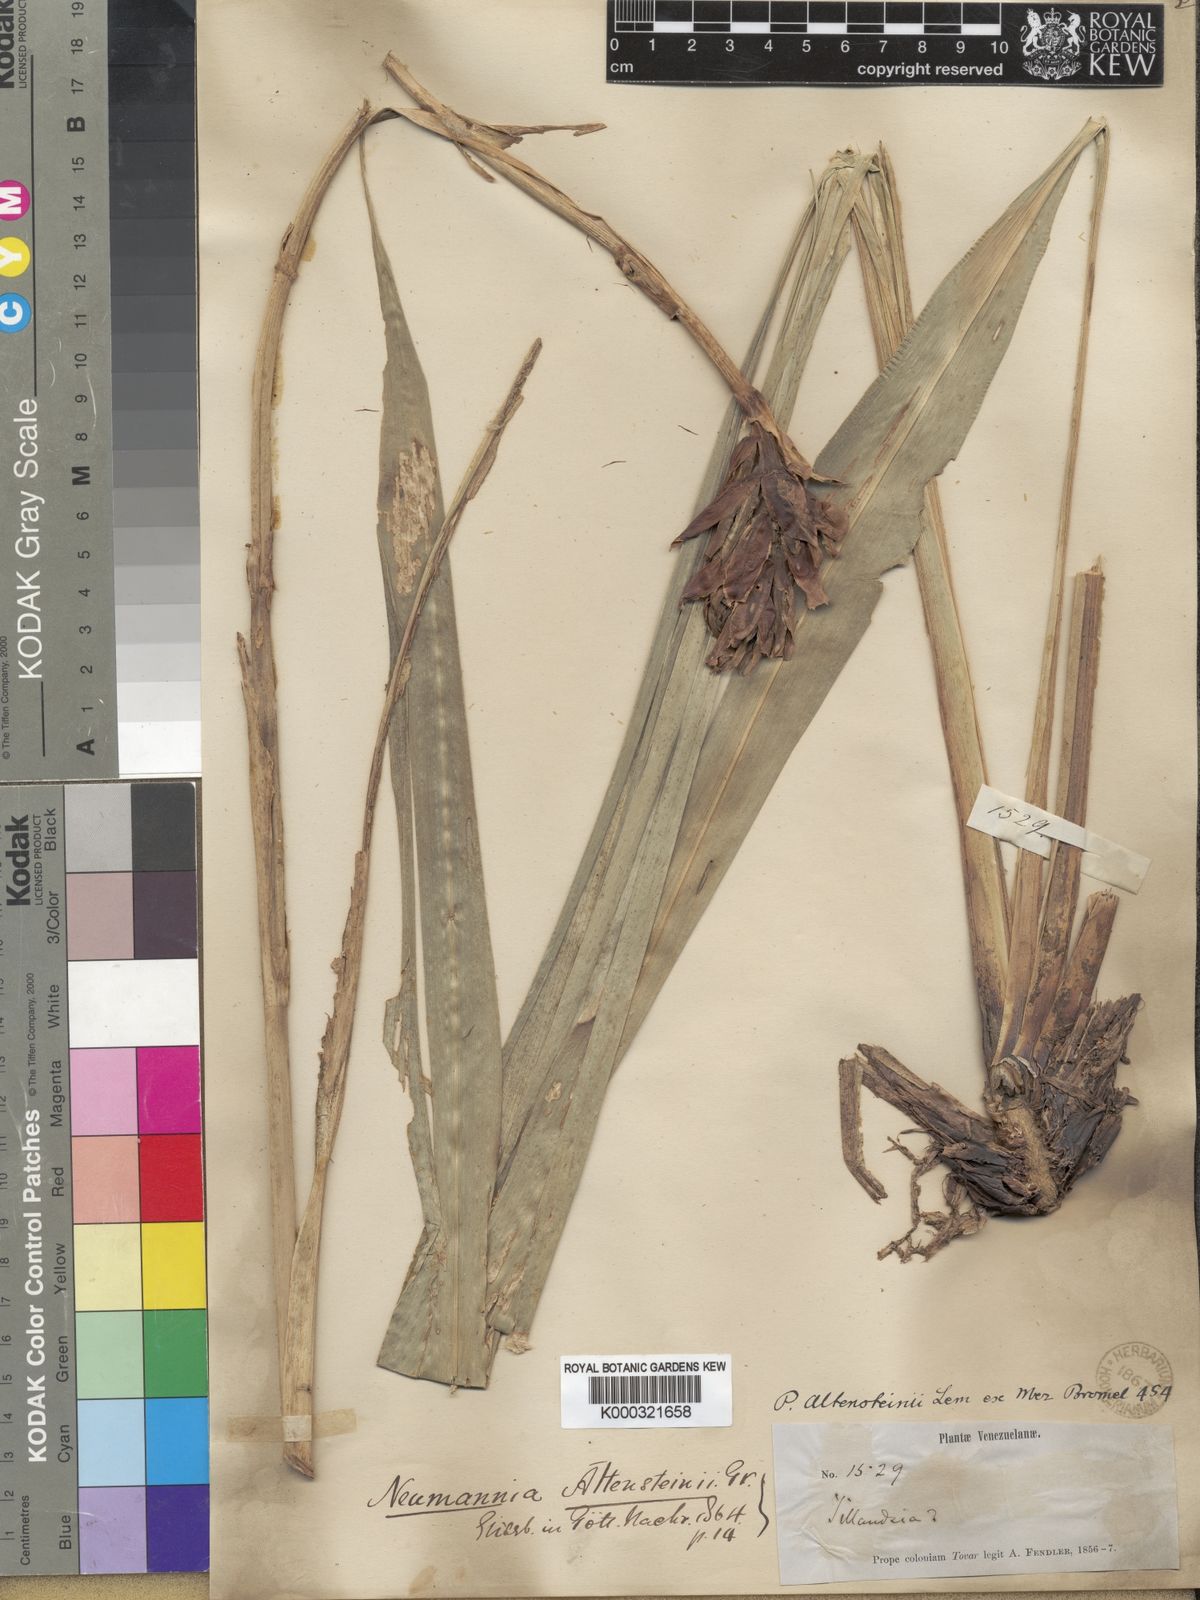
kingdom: Plantae
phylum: Tracheophyta
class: Liliopsida
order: Poales
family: Bromeliaceae
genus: Pitcairnia
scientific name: Pitcairnia
